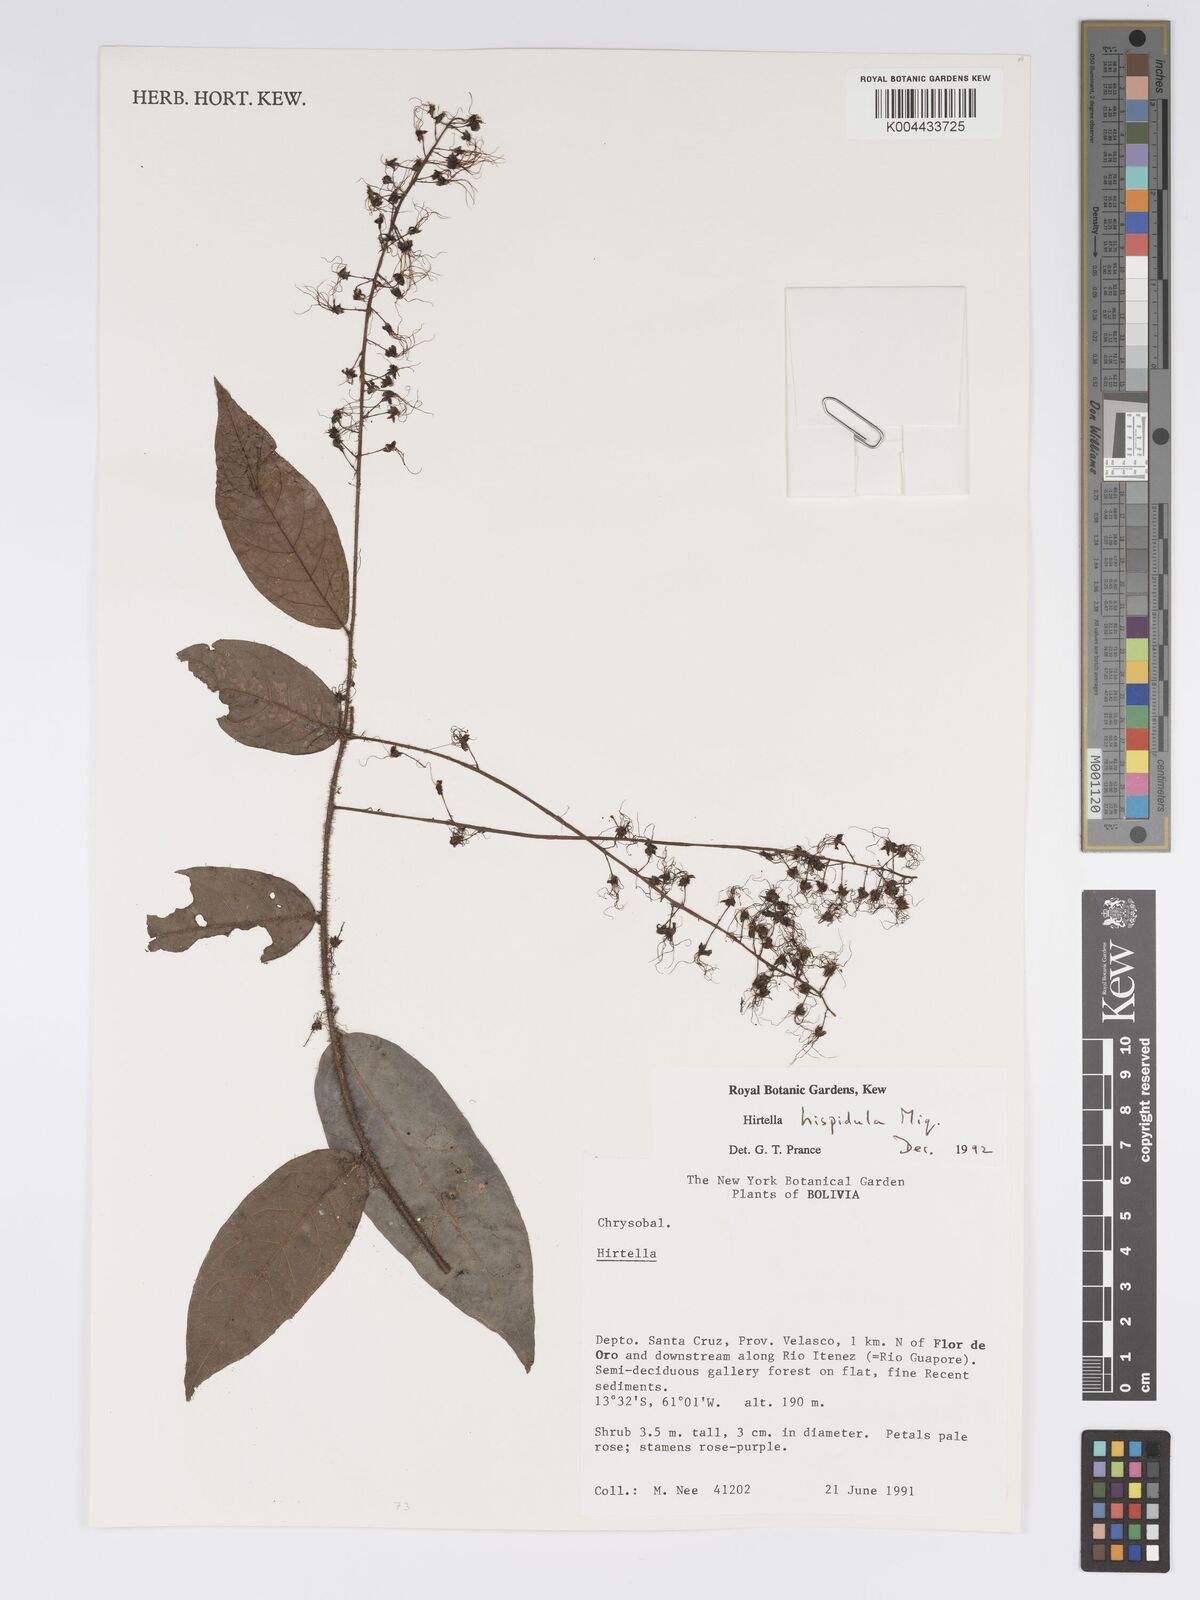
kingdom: Plantae
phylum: Tracheophyta
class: Magnoliopsida
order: Malpighiales
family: Chrysobalanaceae
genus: Hirtella
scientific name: Hirtella hispidula
